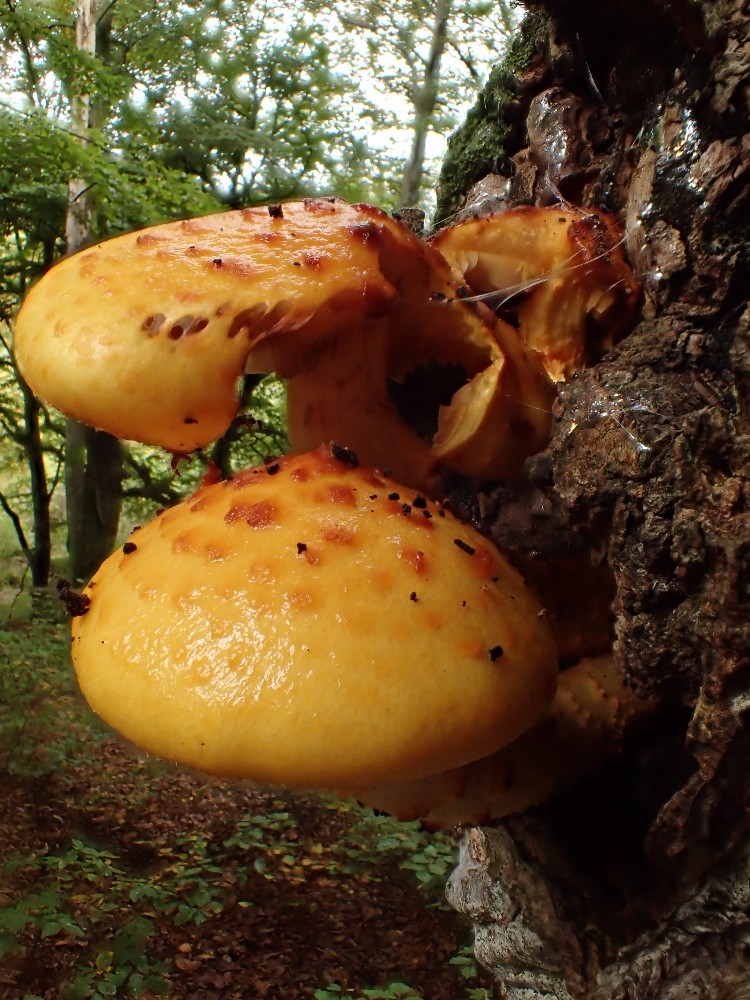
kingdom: Fungi
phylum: Basidiomycota
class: Agaricomycetes
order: Agaricales
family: Strophariaceae
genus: Pholiota
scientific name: Pholiota adiposa
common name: højtsiddende skælhat
